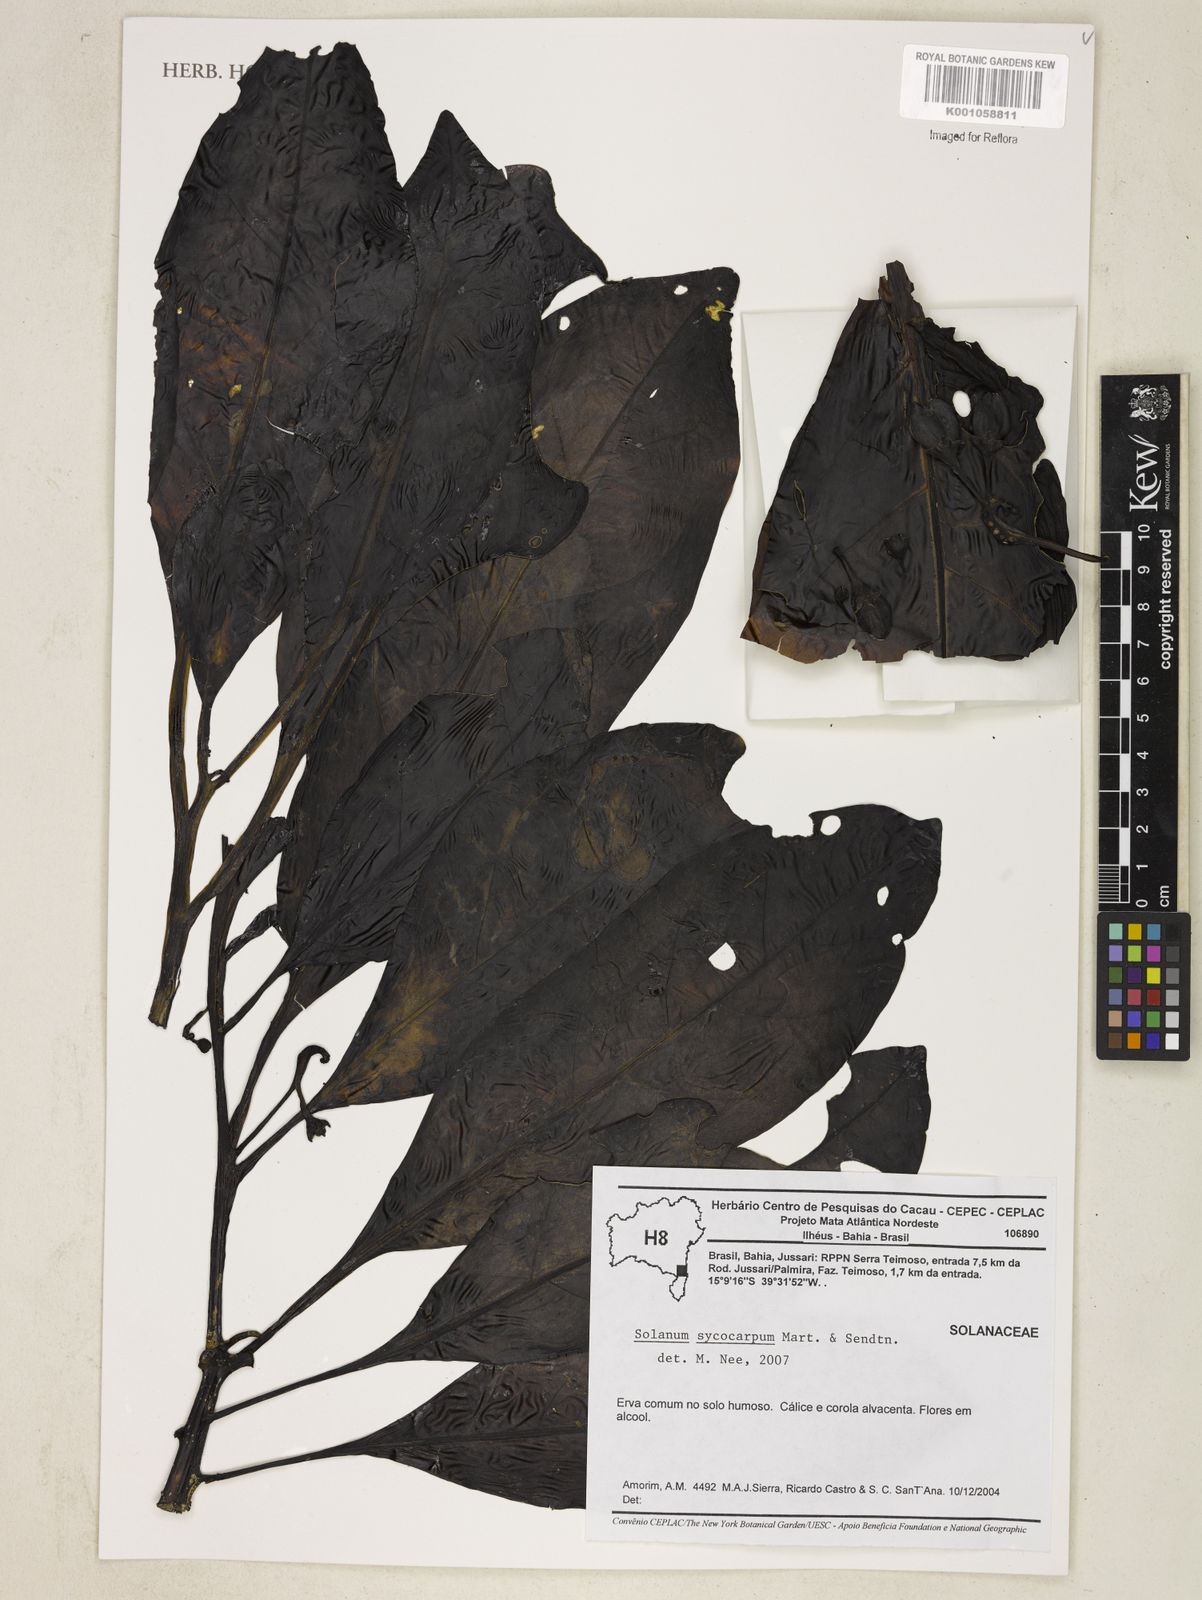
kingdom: Plantae
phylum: Tracheophyta
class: Magnoliopsida
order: Solanales
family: Solanaceae
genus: Solanum
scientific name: Solanum symmetricum
